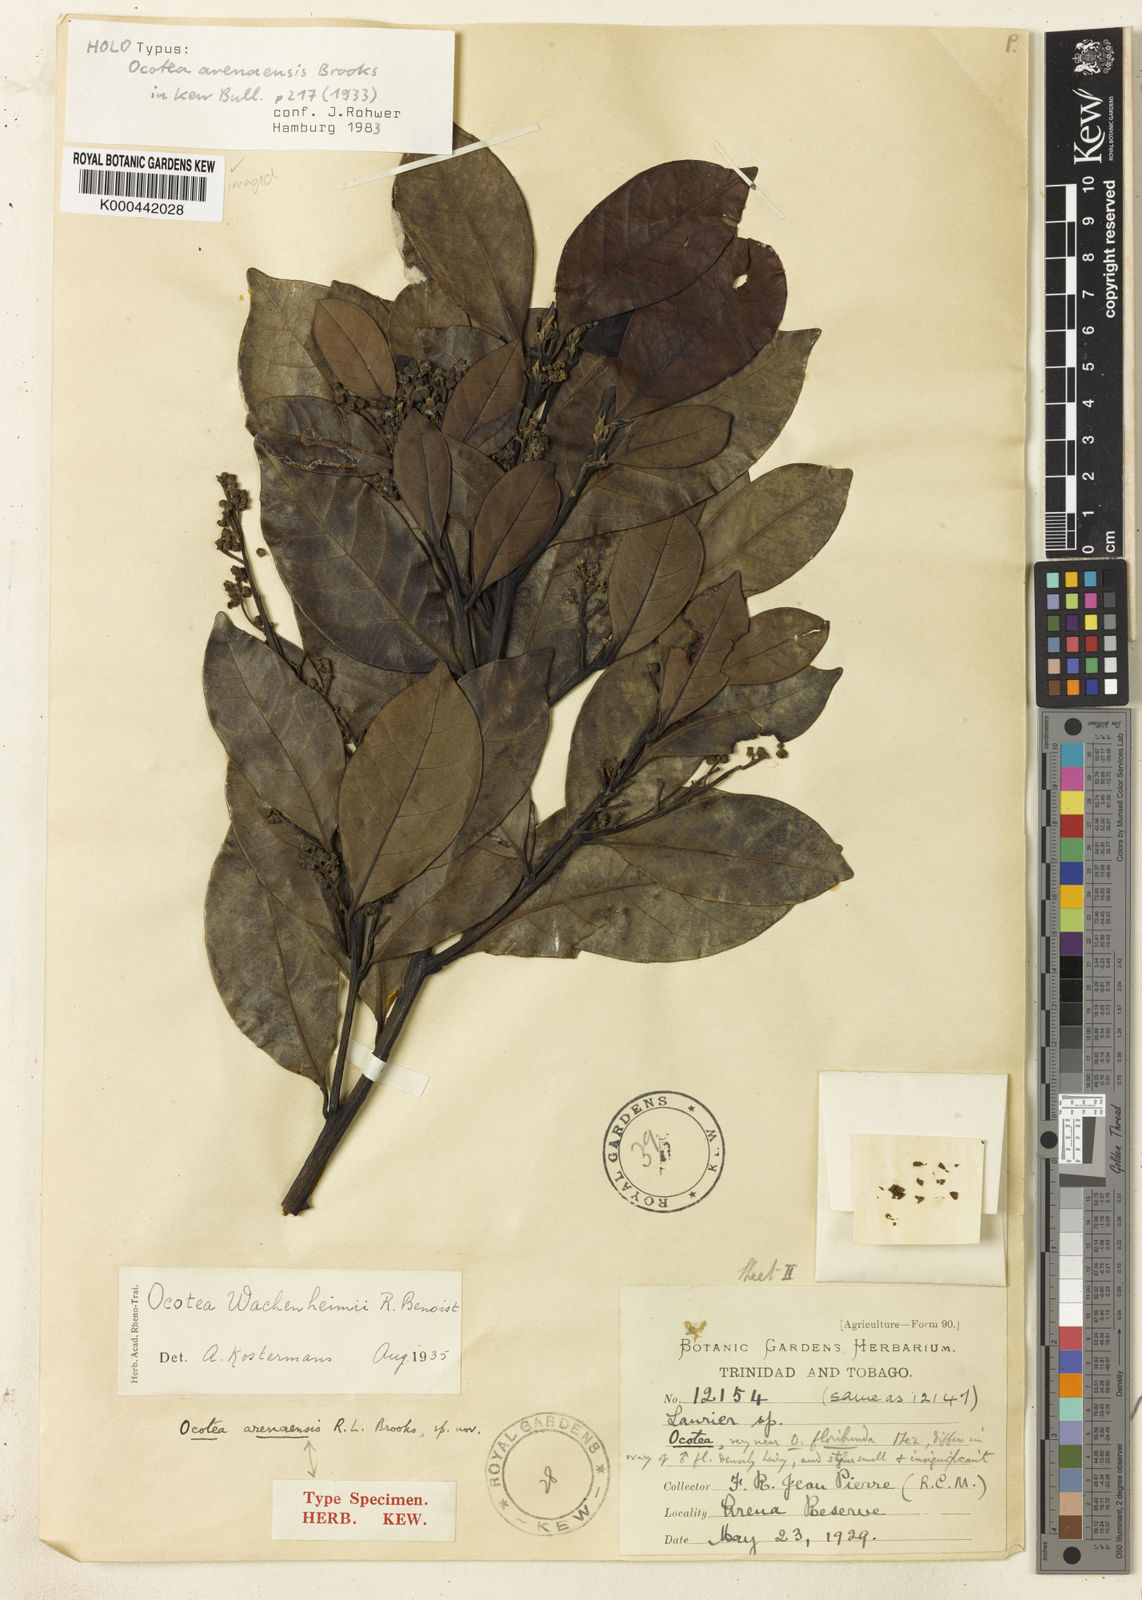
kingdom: Plantae
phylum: Tracheophyta
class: Magnoliopsida
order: Laurales
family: Lauraceae
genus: Ocotea
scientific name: Ocotea floribunda
